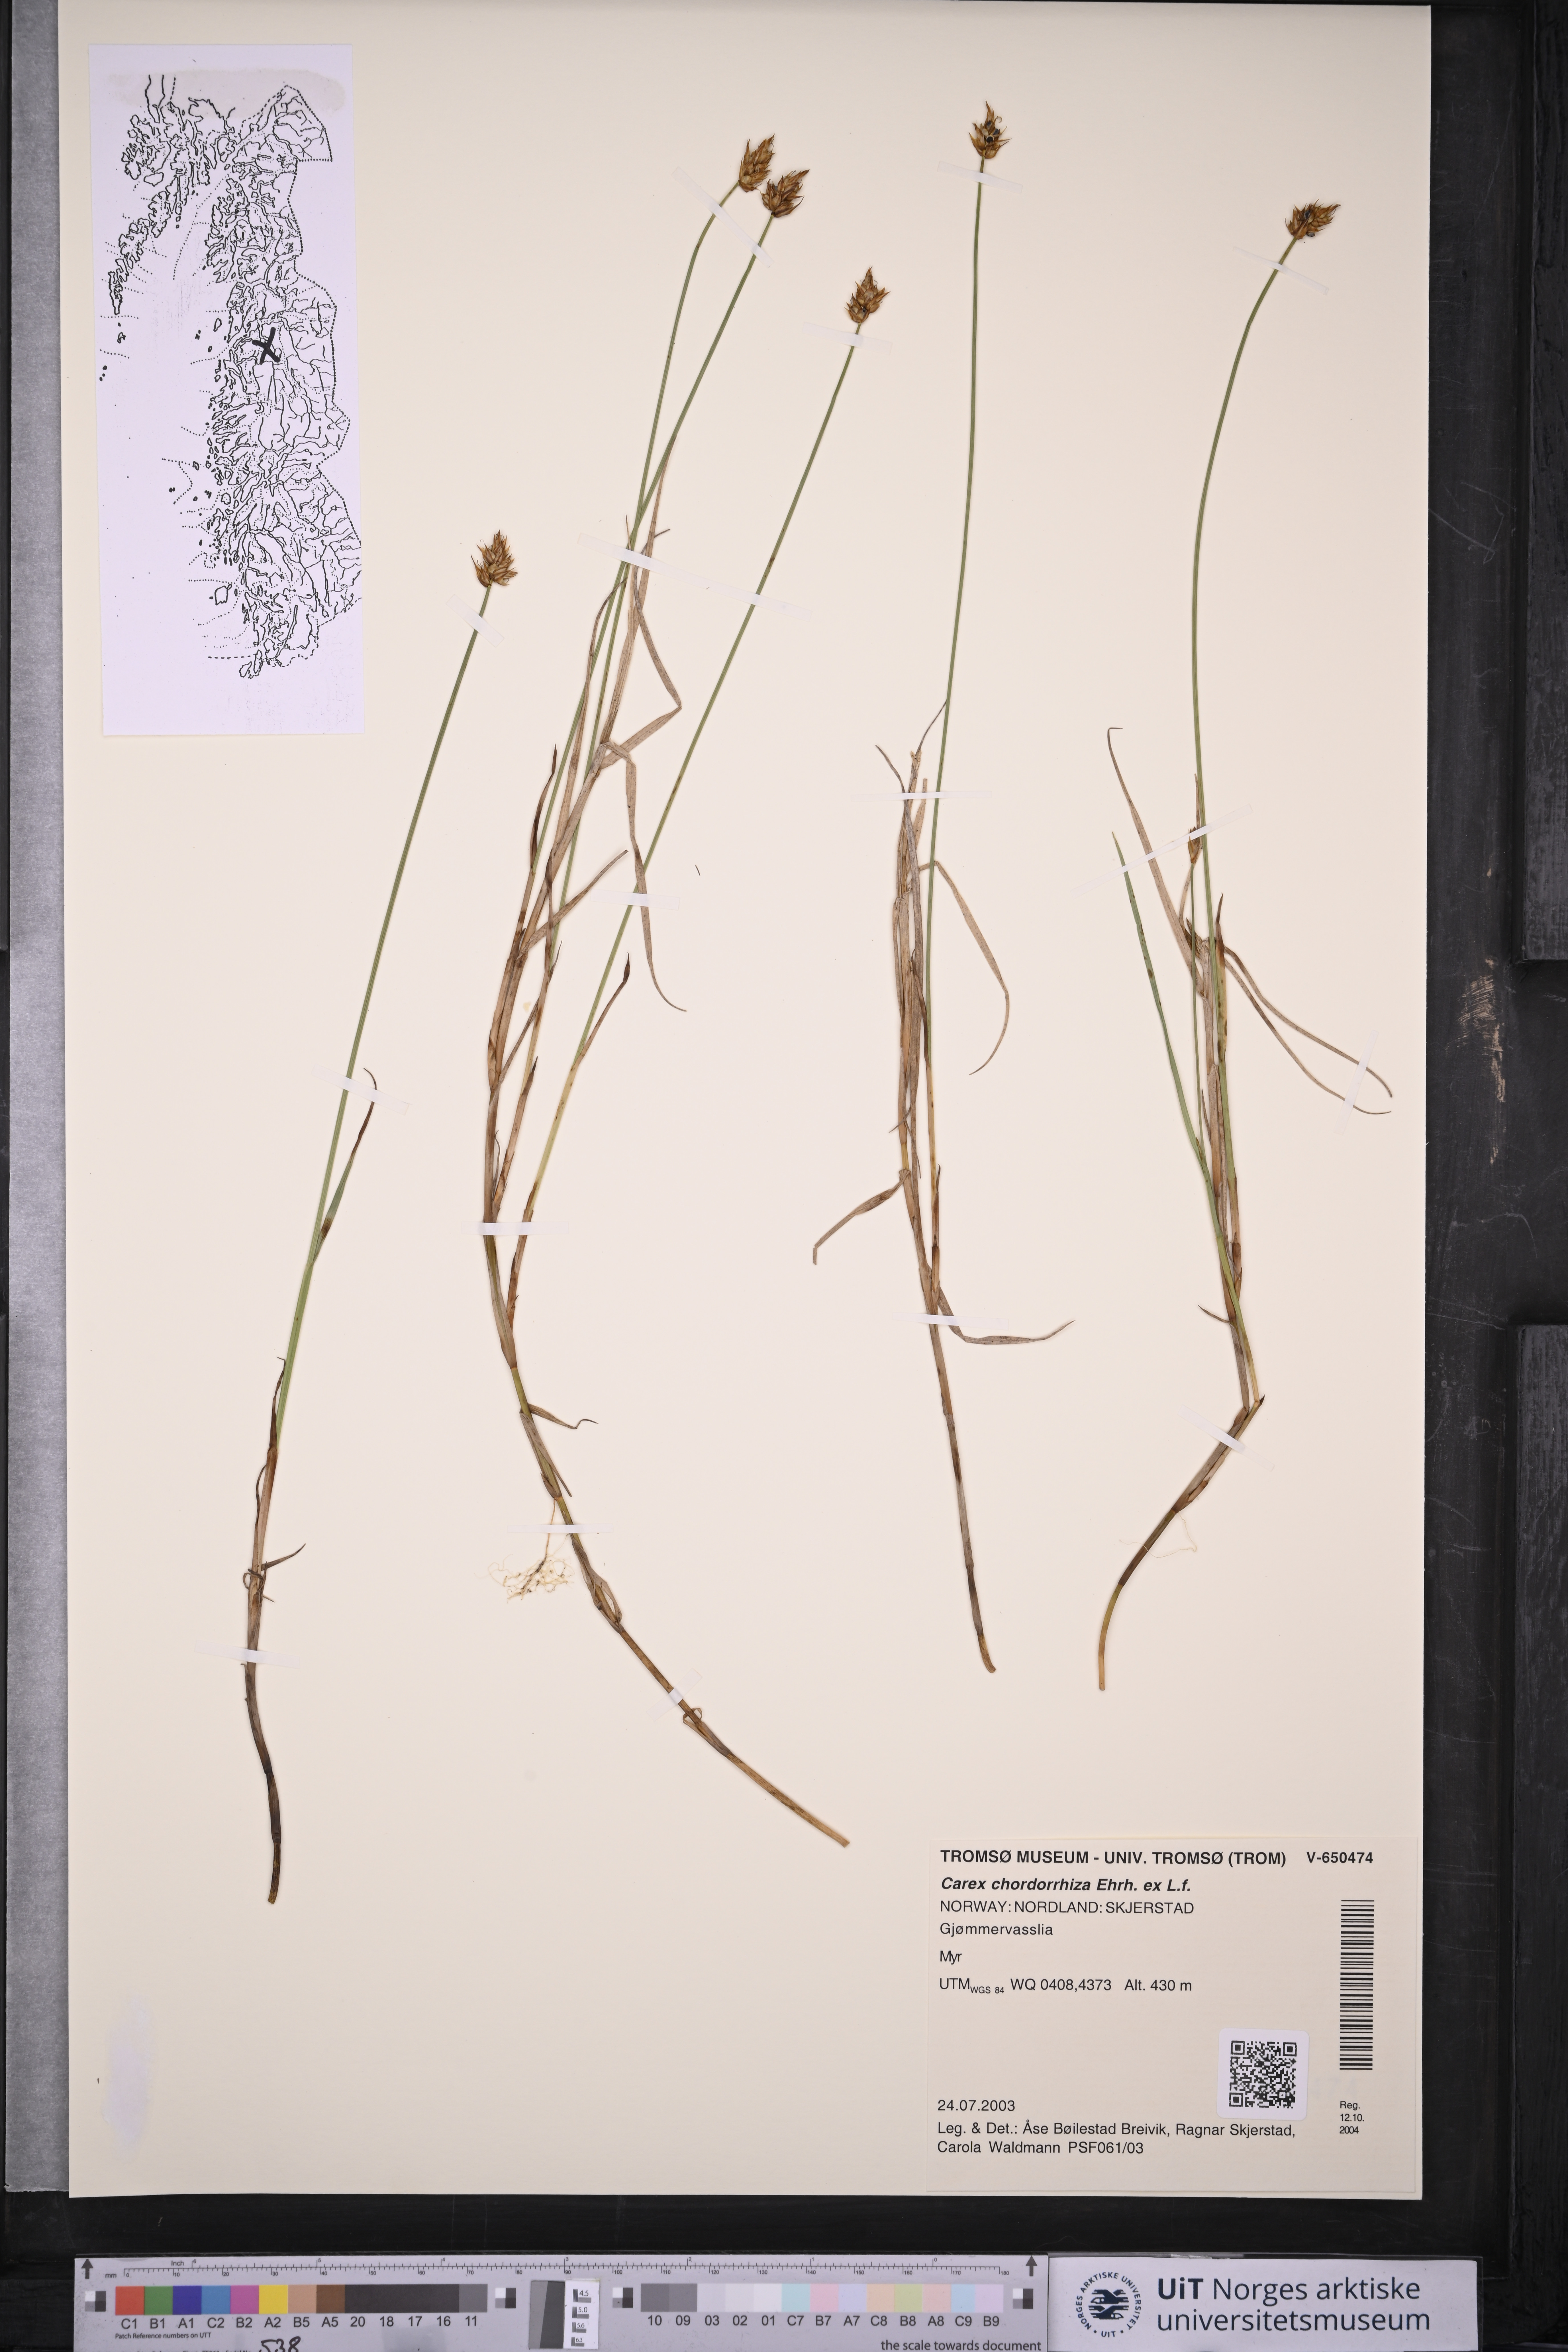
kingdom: Plantae
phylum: Tracheophyta
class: Liliopsida
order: Poales
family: Cyperaceae
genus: Carex
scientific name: Carex chordorrhiza
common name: String sedge
